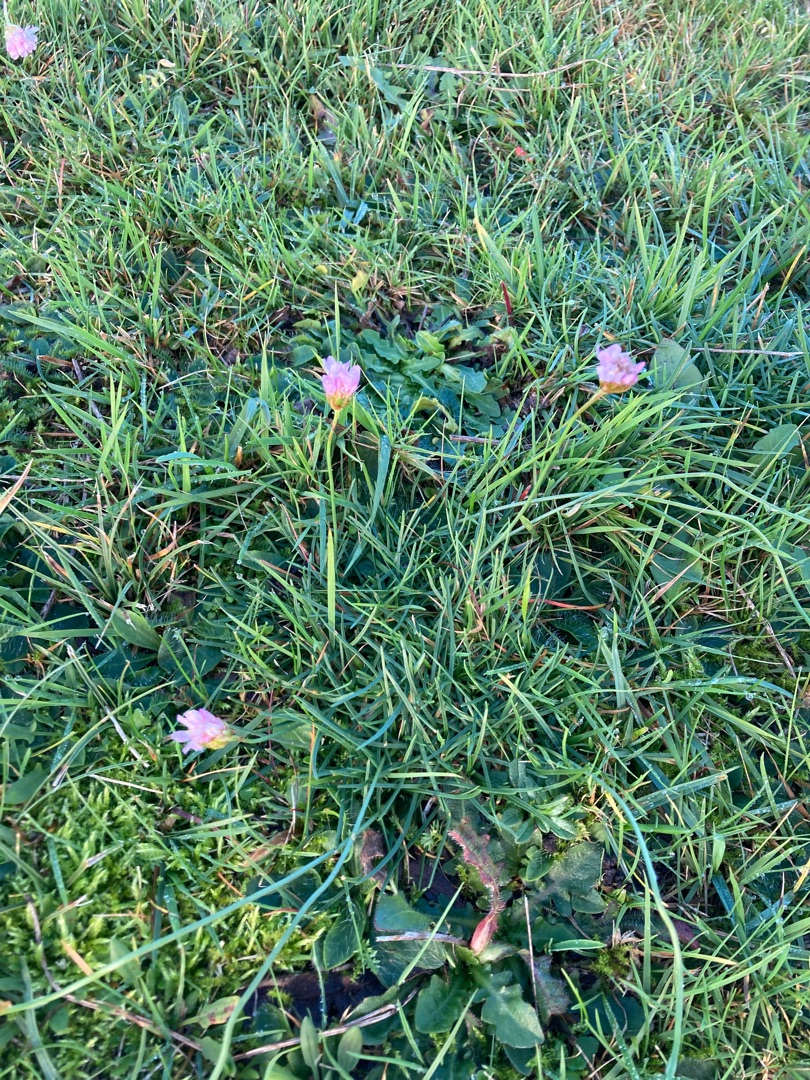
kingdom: Plantae
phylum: Tracheophyta
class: Magnoliopsida
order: Caryophyllales
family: Plumbaginaceae
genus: Armeria
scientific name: Armeria maritima
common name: Engelskgræs
